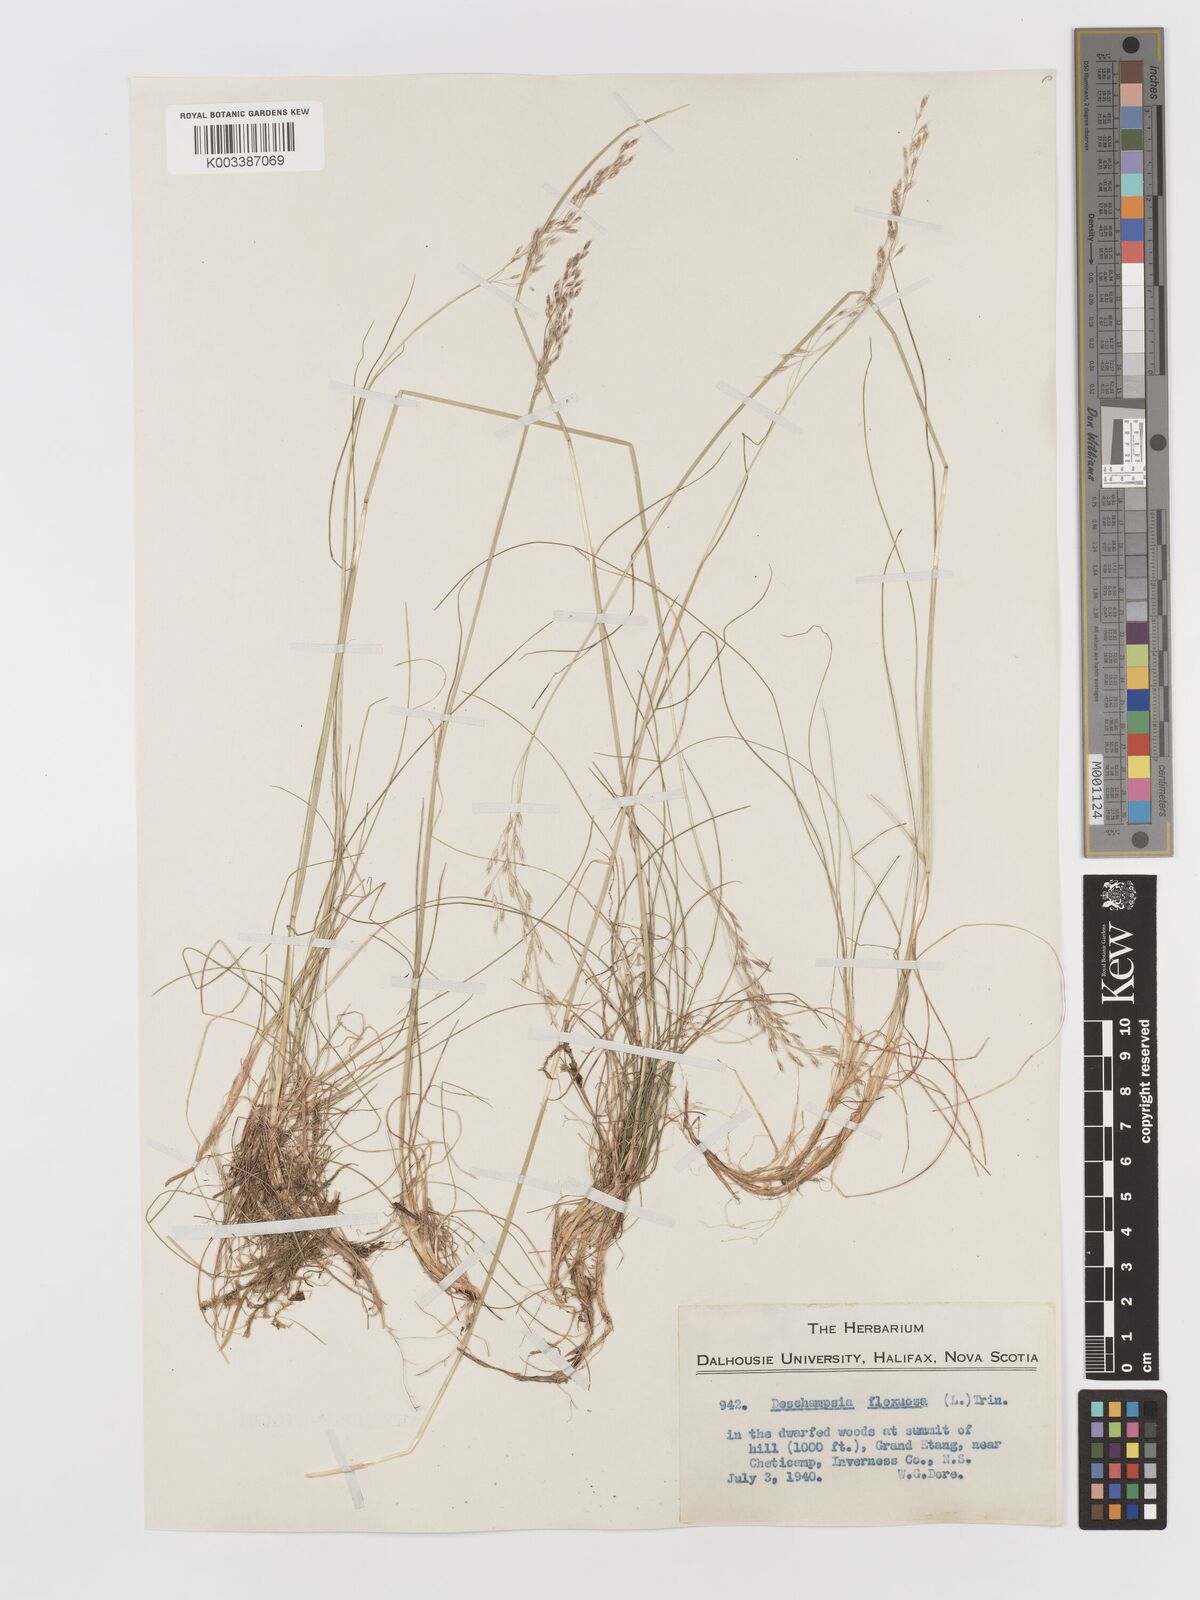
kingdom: Plantae
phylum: Tracheophyta
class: Liliopsida
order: Poales
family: Poaceae
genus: Avenella
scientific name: Avenella flexuosa
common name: Wavy hairgrass
